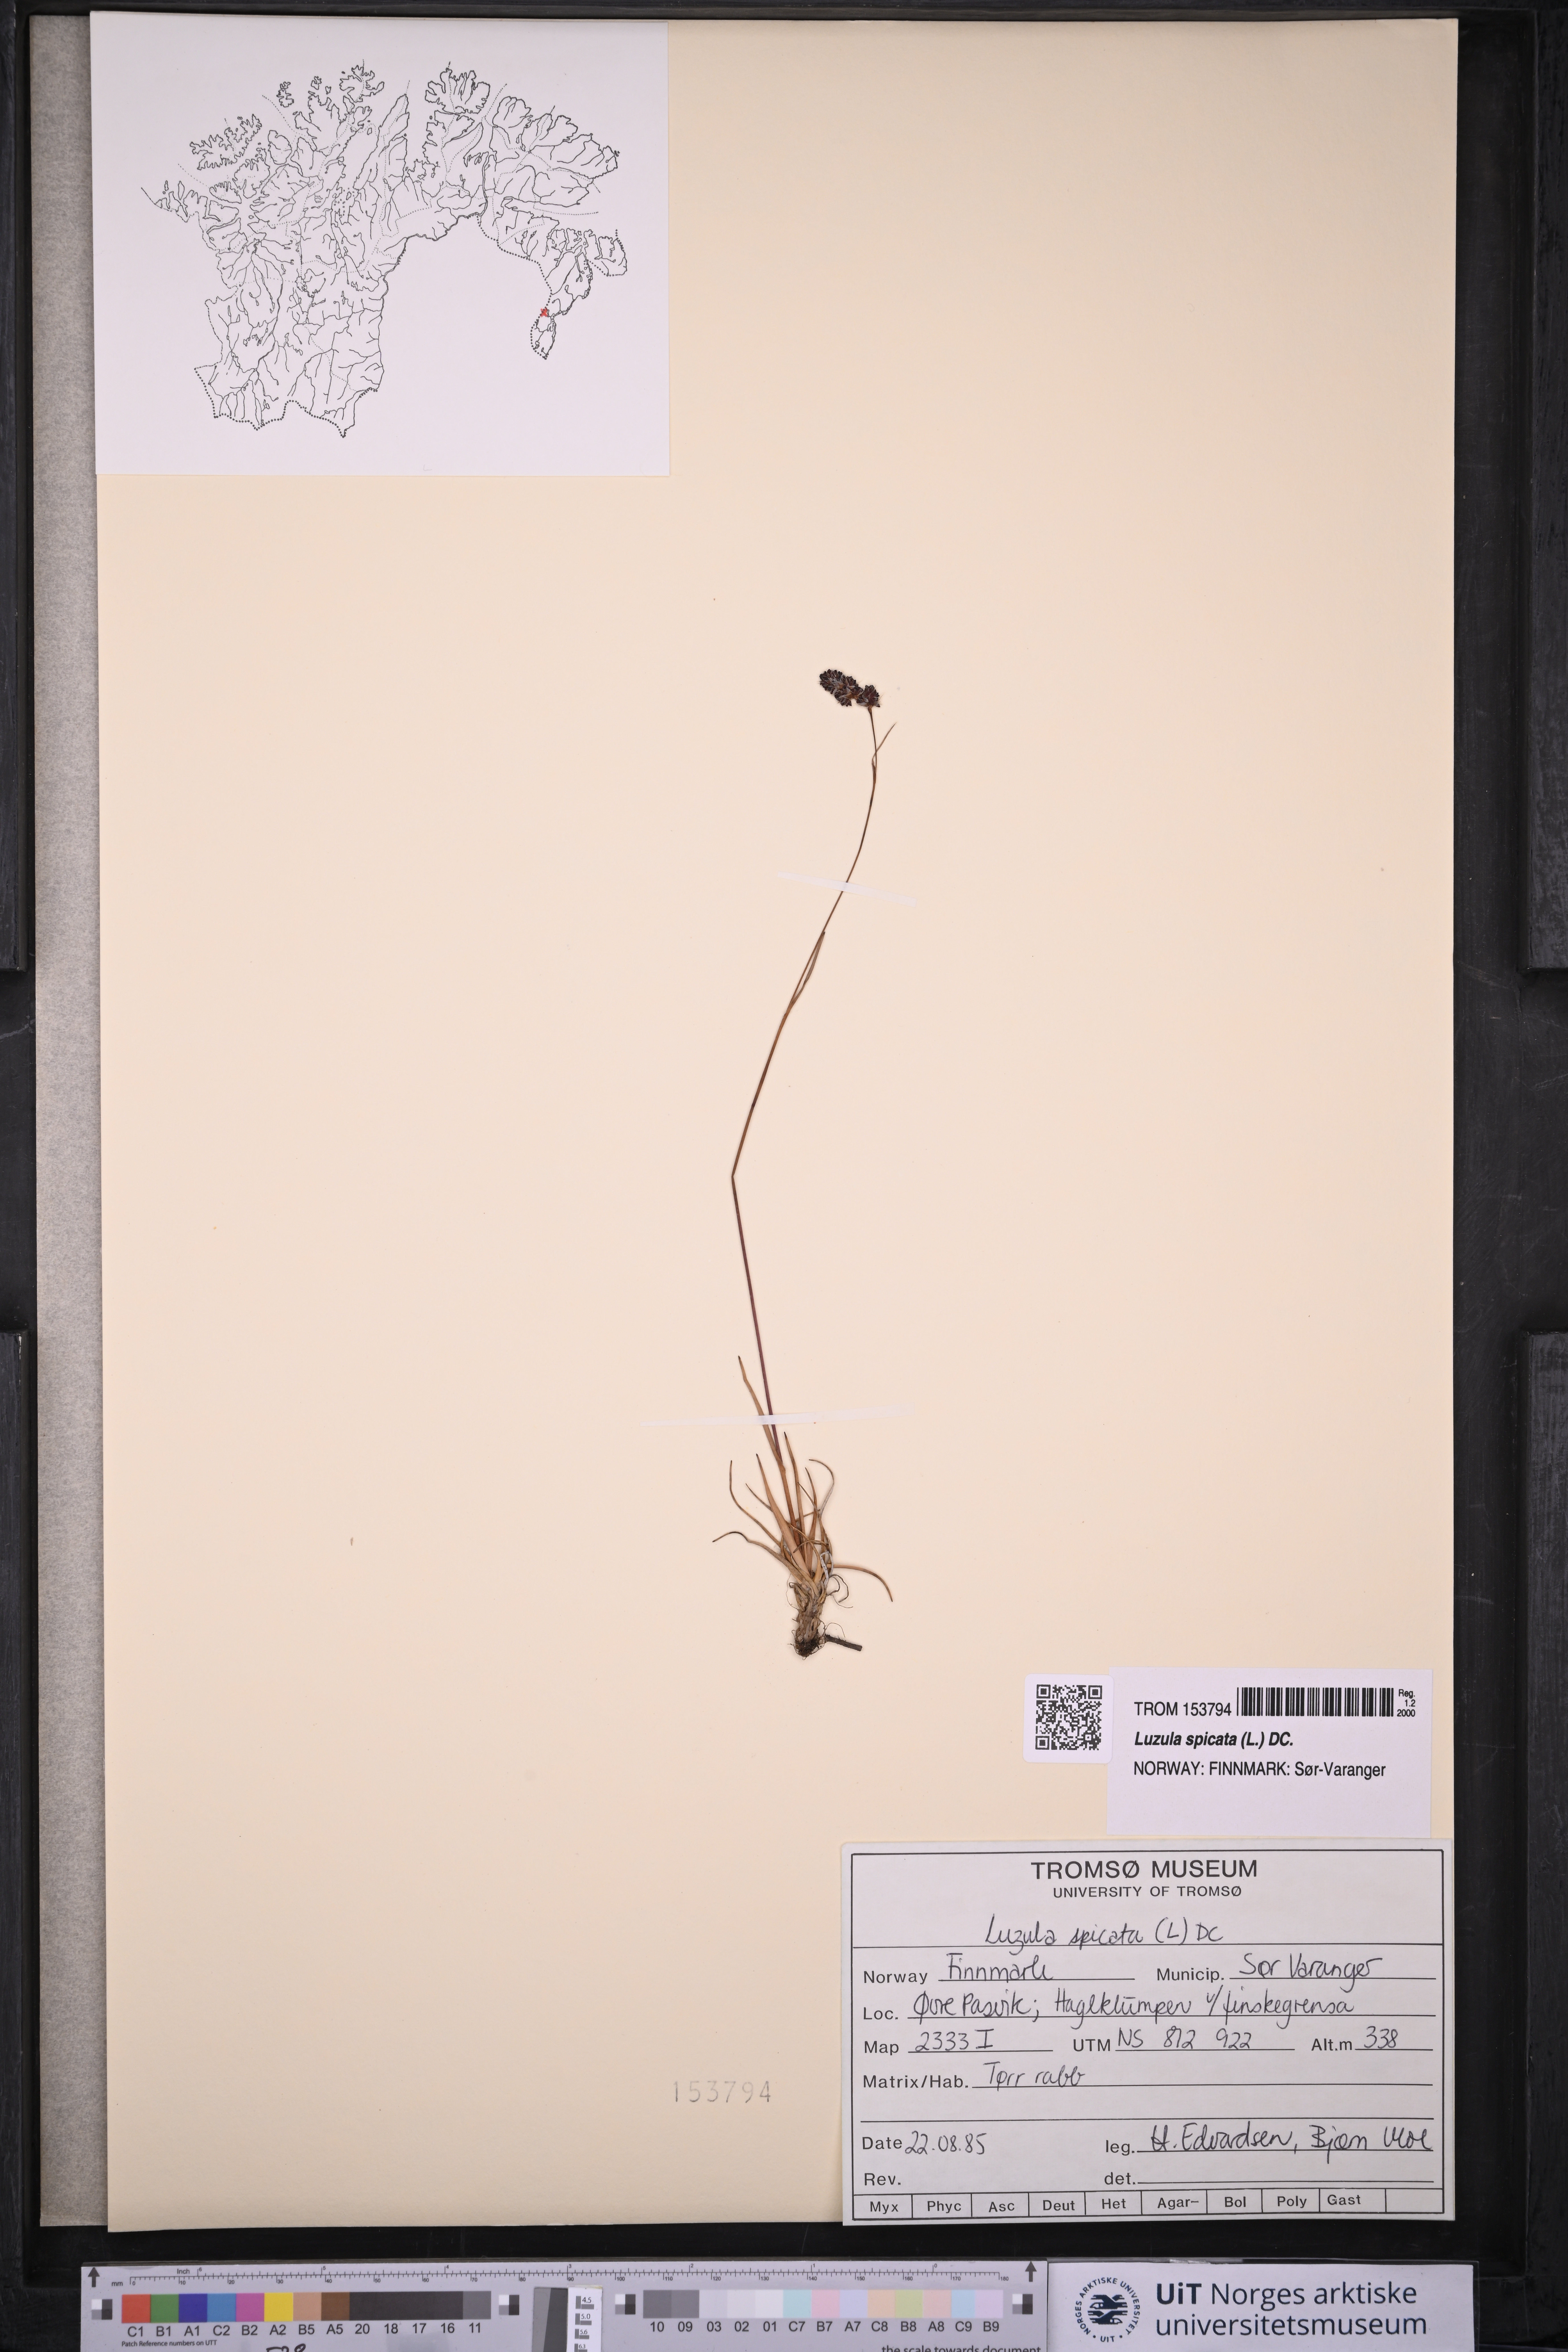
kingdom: Plantae
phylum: Tracheophyta
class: Liliopsida
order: Poales
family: Juncaceae
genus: Luzula
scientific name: Luzula spicata
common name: Spiked wood-rush
